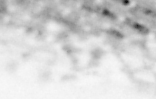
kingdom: Animalia
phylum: Chordata
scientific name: Chordata
